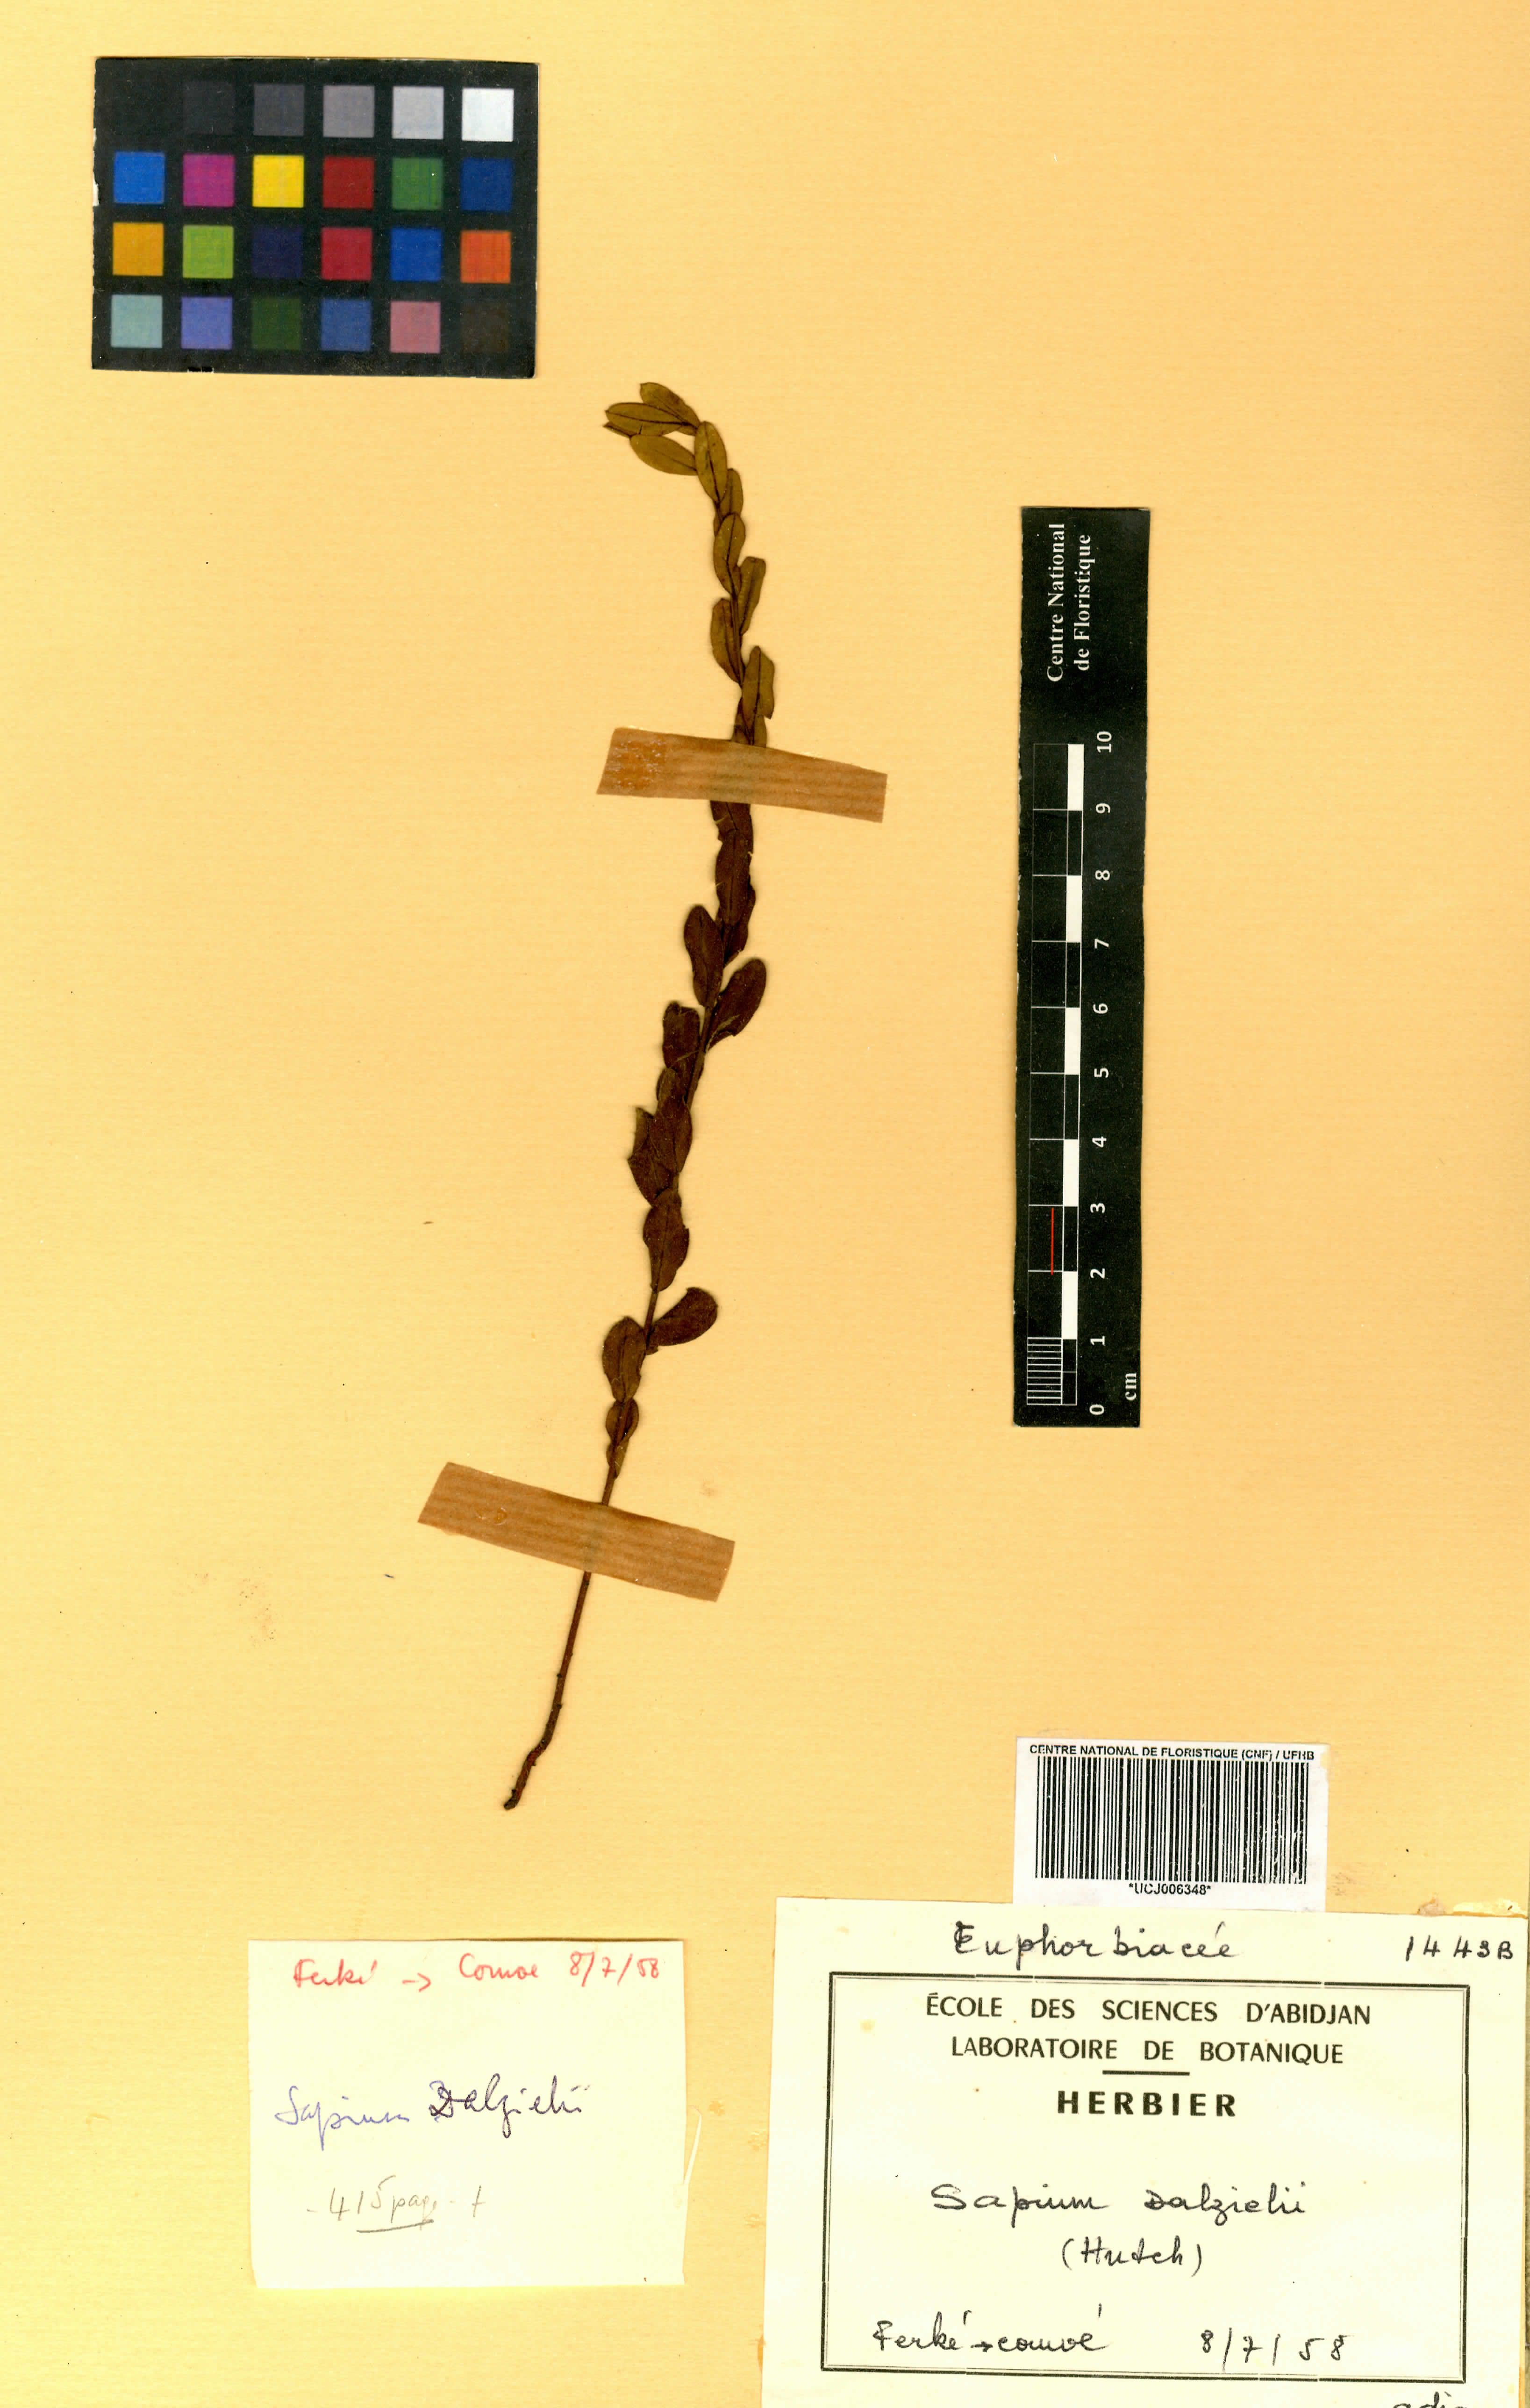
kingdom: Plantae
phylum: Tracheophyta
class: Magnoliopsida
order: Malpighiales
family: Euphorbiaceae
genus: Microstachys
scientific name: Microstachys dalzielii
